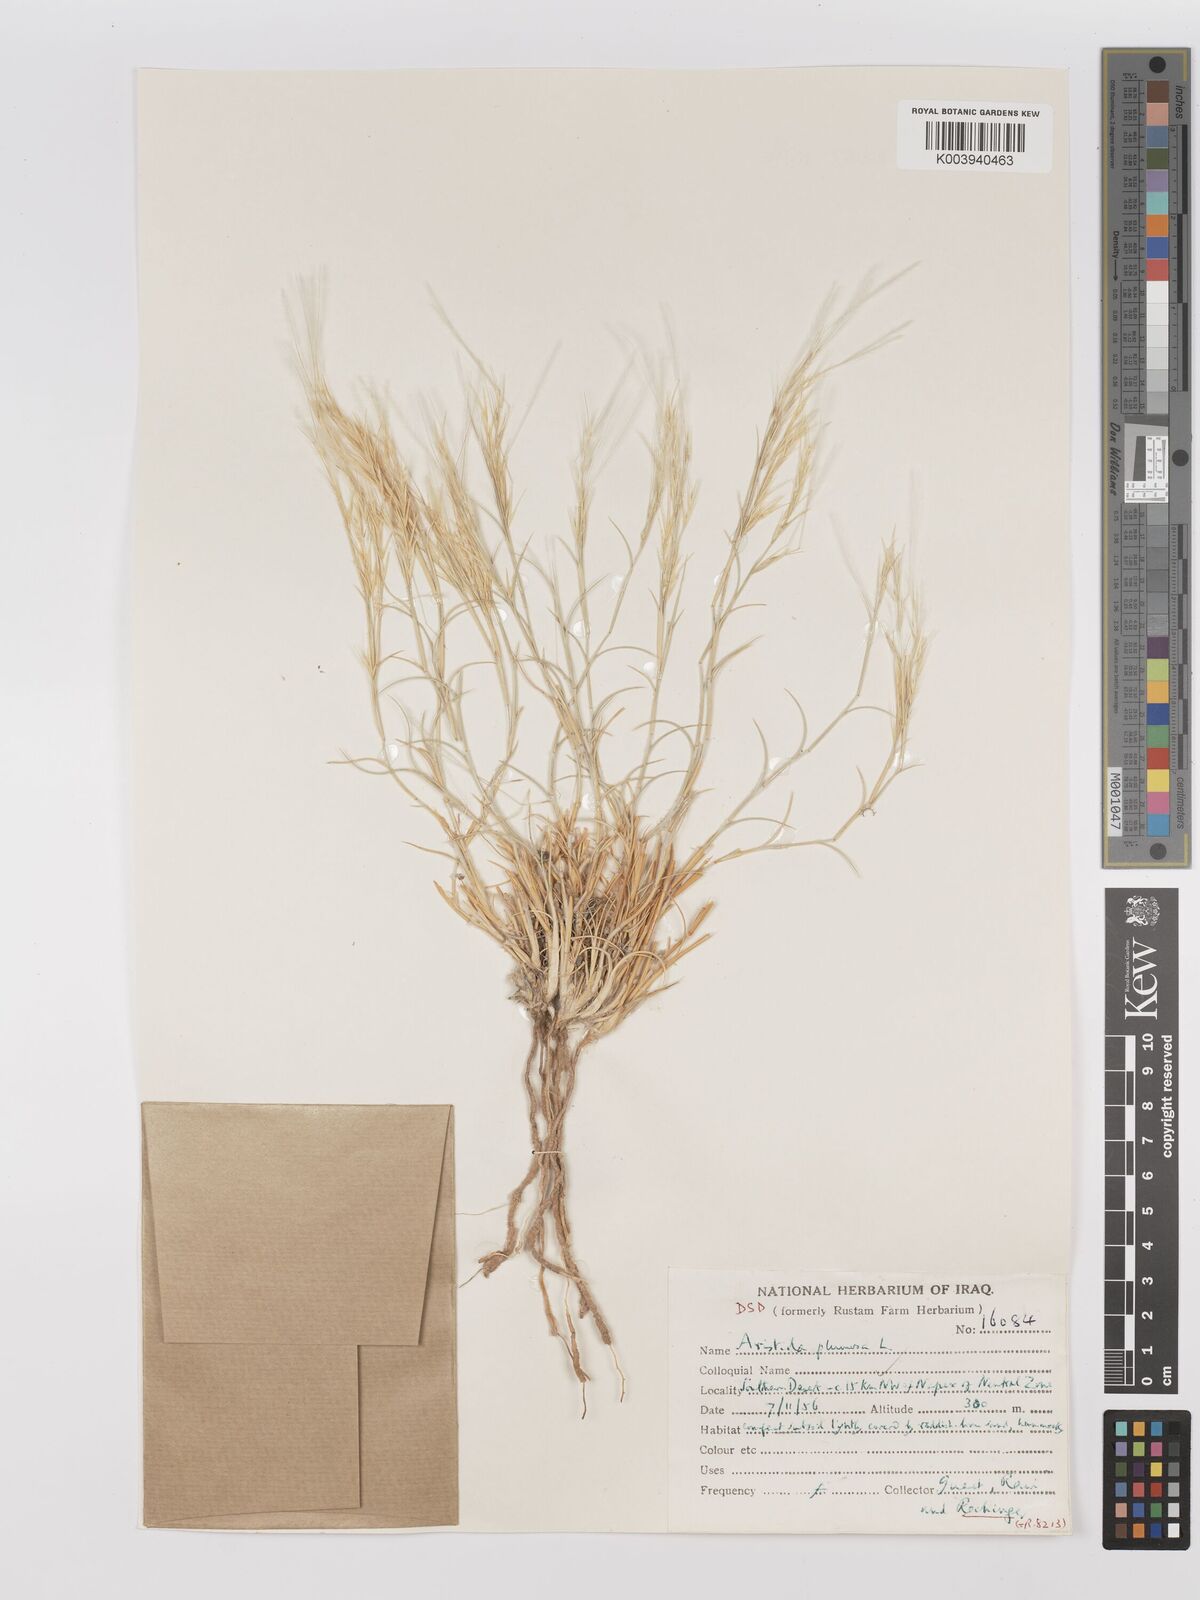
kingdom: Plantae
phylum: Tracheophyta
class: Liliopsida
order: Poales
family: Poaceae
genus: Stipagrostis
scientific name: Stipagrostis plumosa
